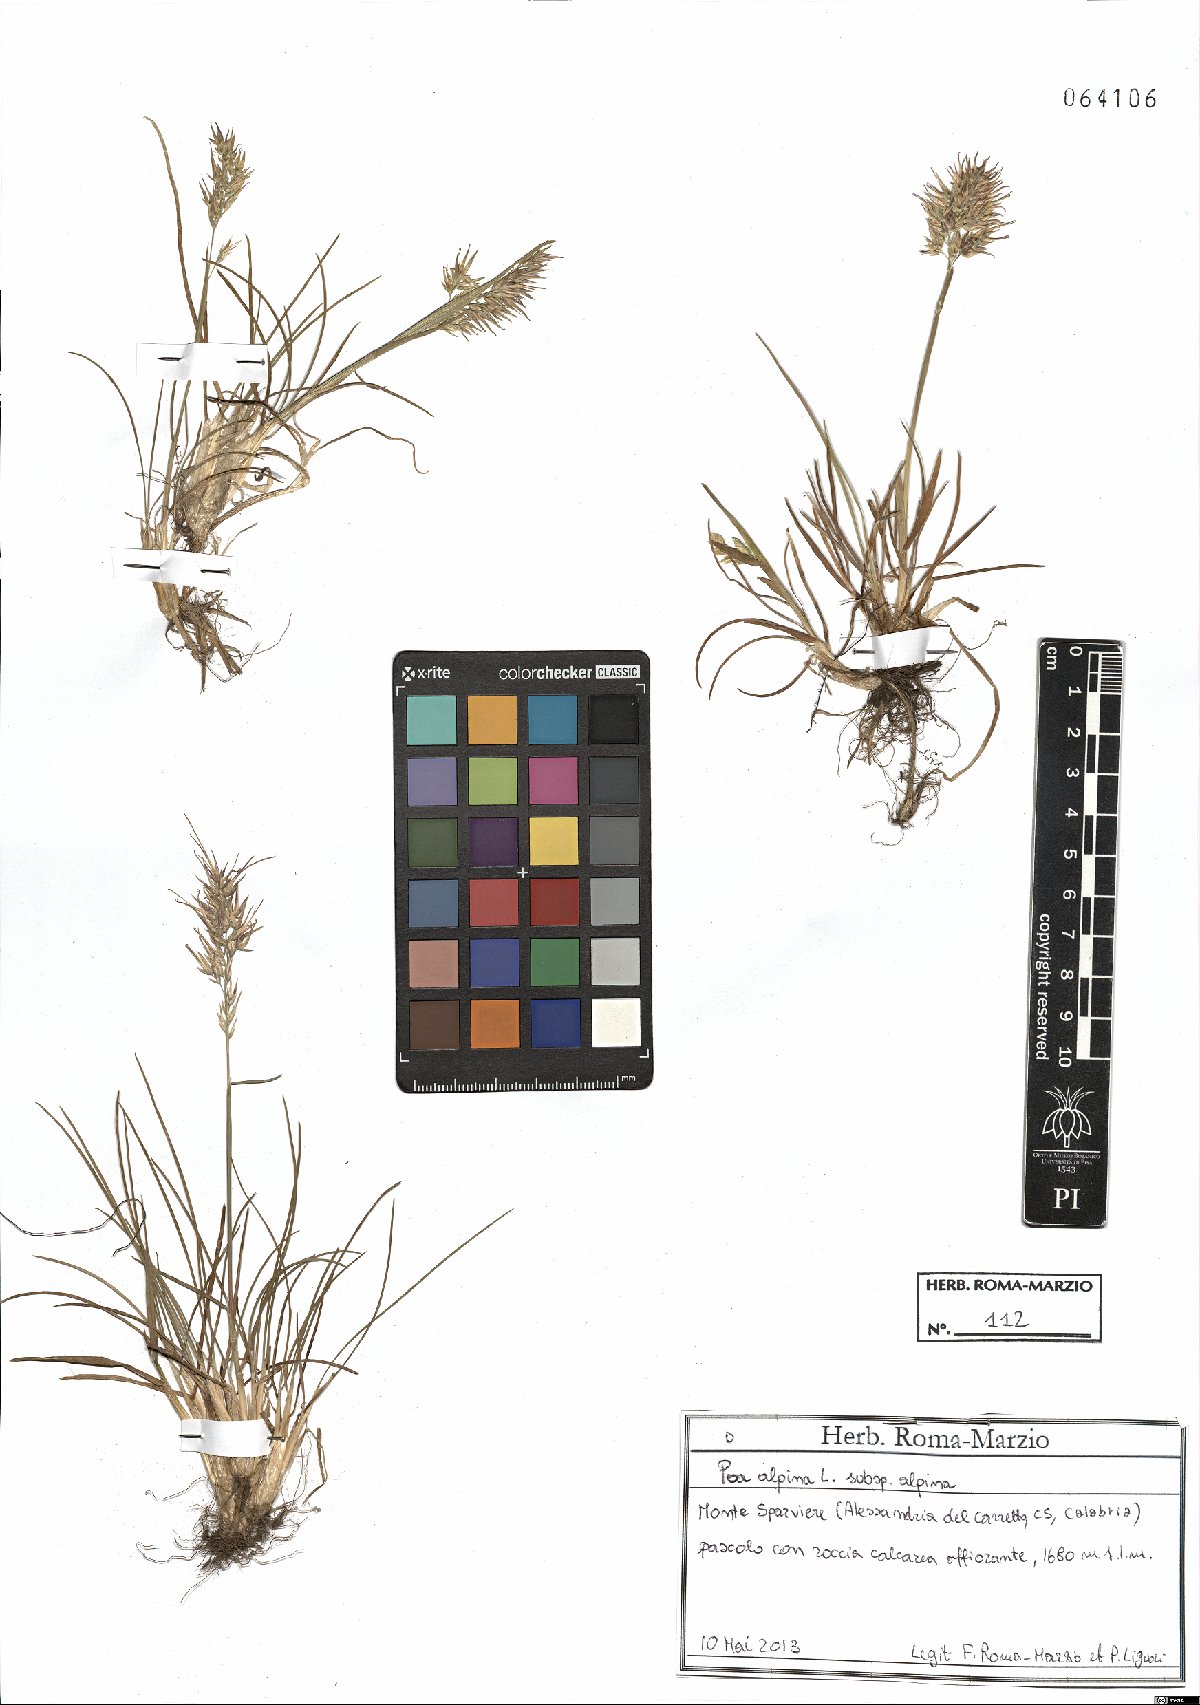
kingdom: Plantae
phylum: Tracheophyta
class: Liliopsida
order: Poales
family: Poaceae
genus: Poa
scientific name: Poa alpina
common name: Alpine bluegrass
